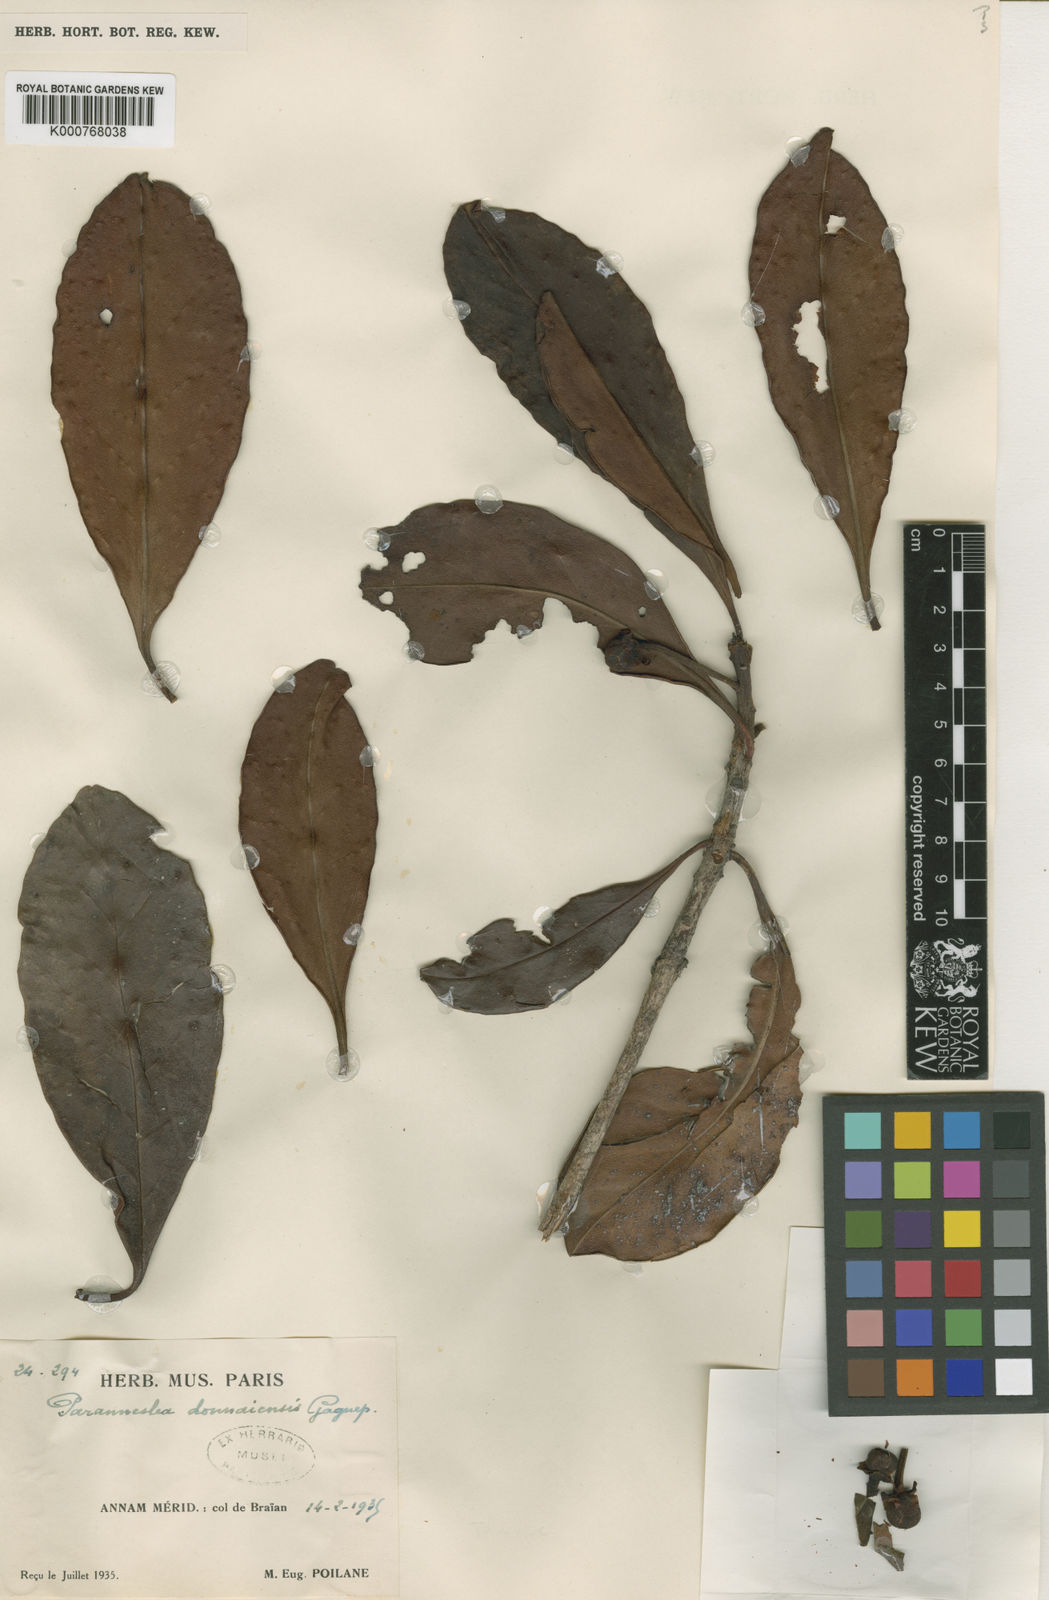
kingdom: Plantae
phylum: Tracheophyta
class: Magnoliopsida
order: Ericales
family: Pentaphylacaceae
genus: Anneslea
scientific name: Anneslea donnaiensis
